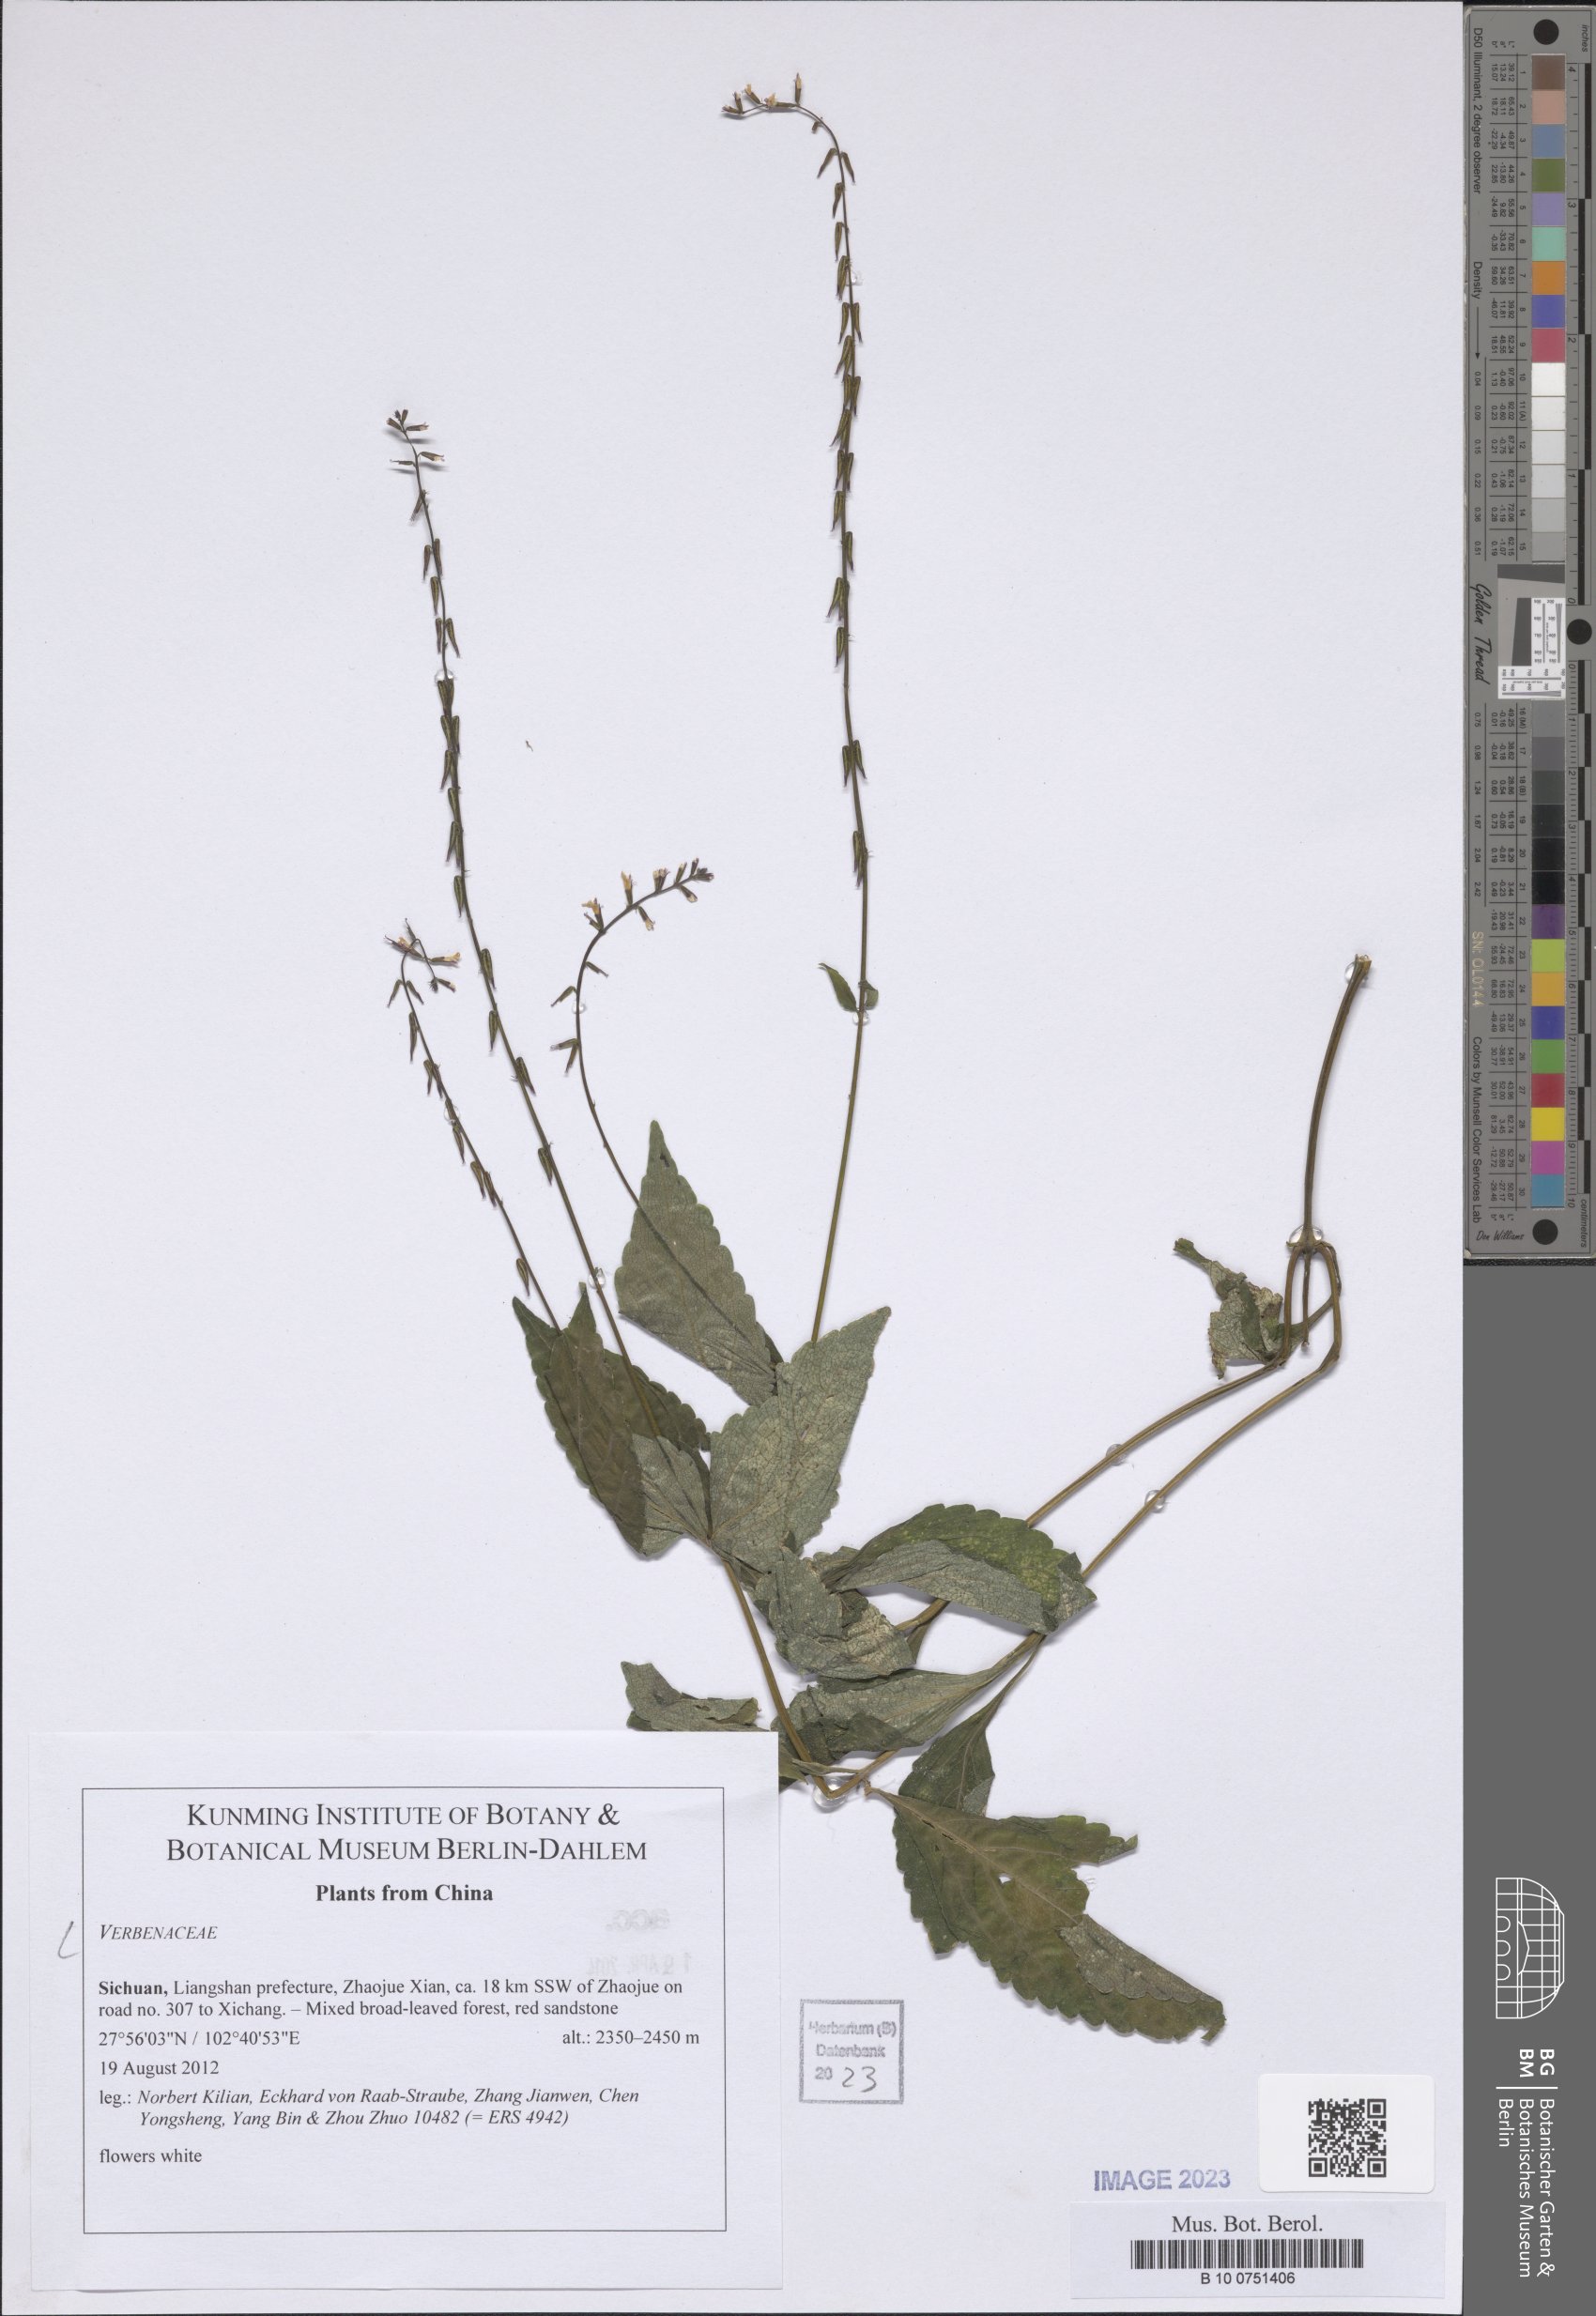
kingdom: Plantae
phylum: Tracheophyta
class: Magnoliopsida
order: Lamiales
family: Verbenaceae
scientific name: Verbenaceae
